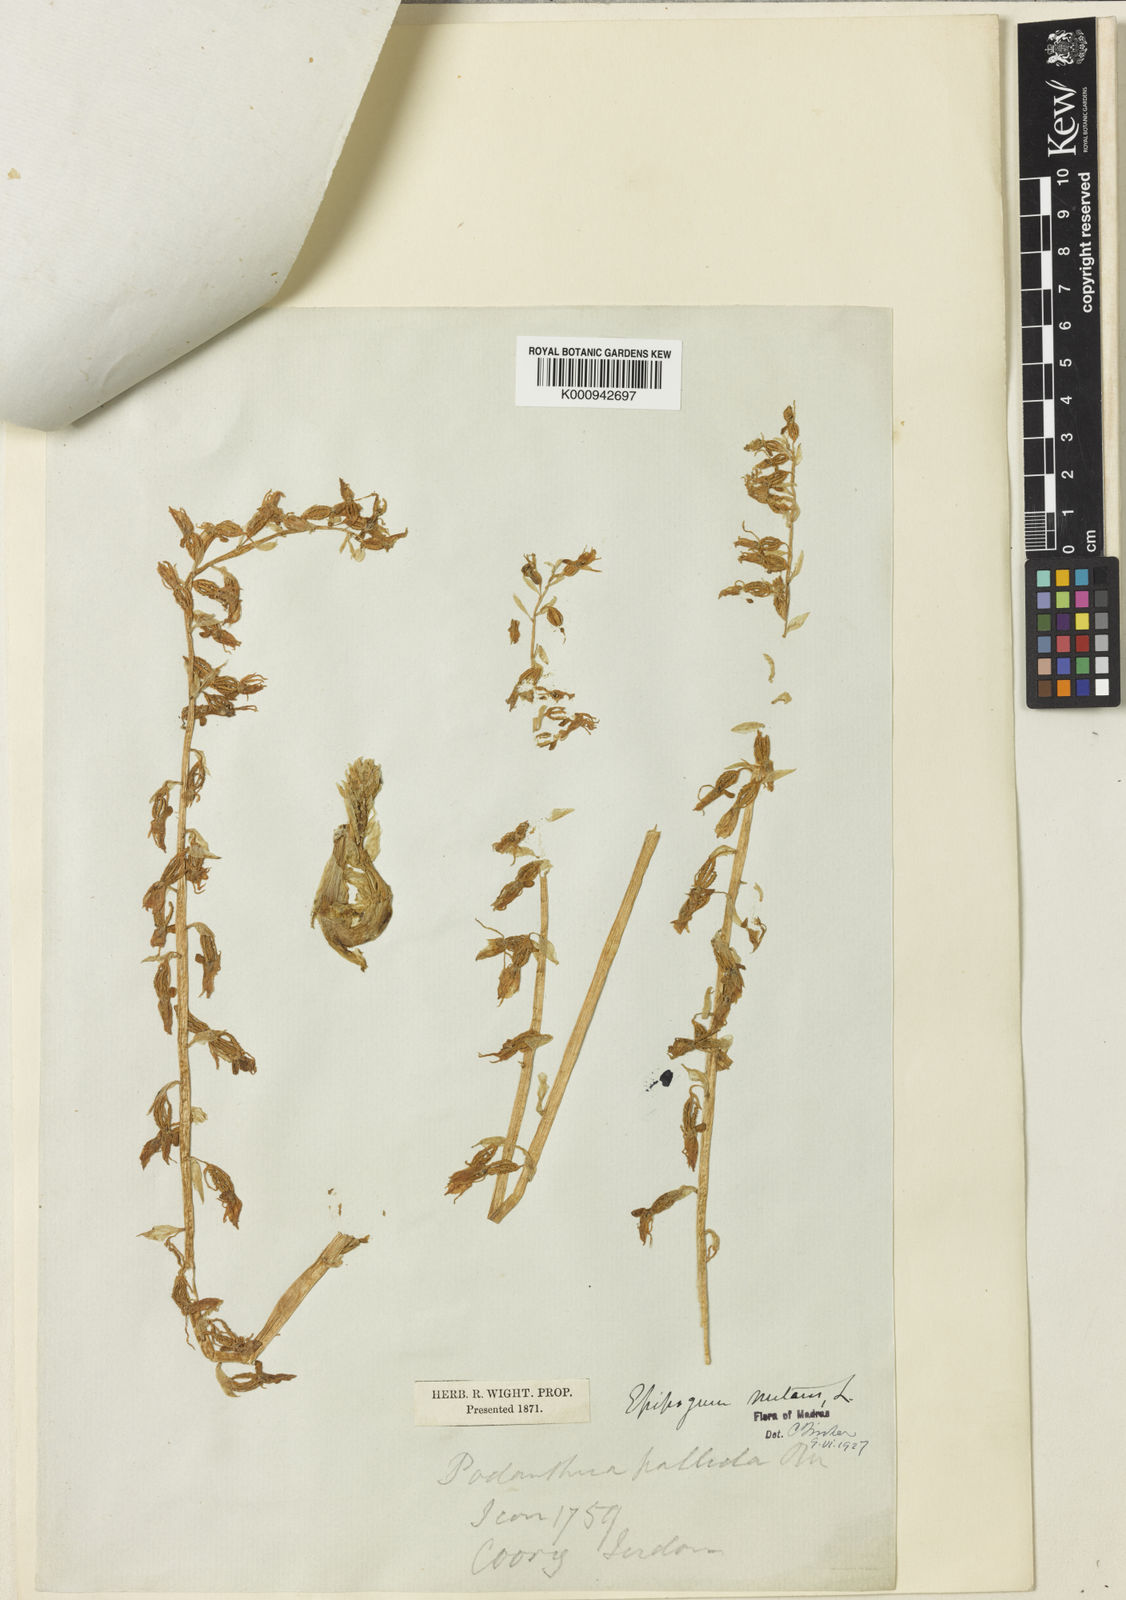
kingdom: Plantae
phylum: Tracheophyta
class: Liliopsida
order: Asparagales
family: Orchidaceae
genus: Epipogium
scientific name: Epipogium roseum
